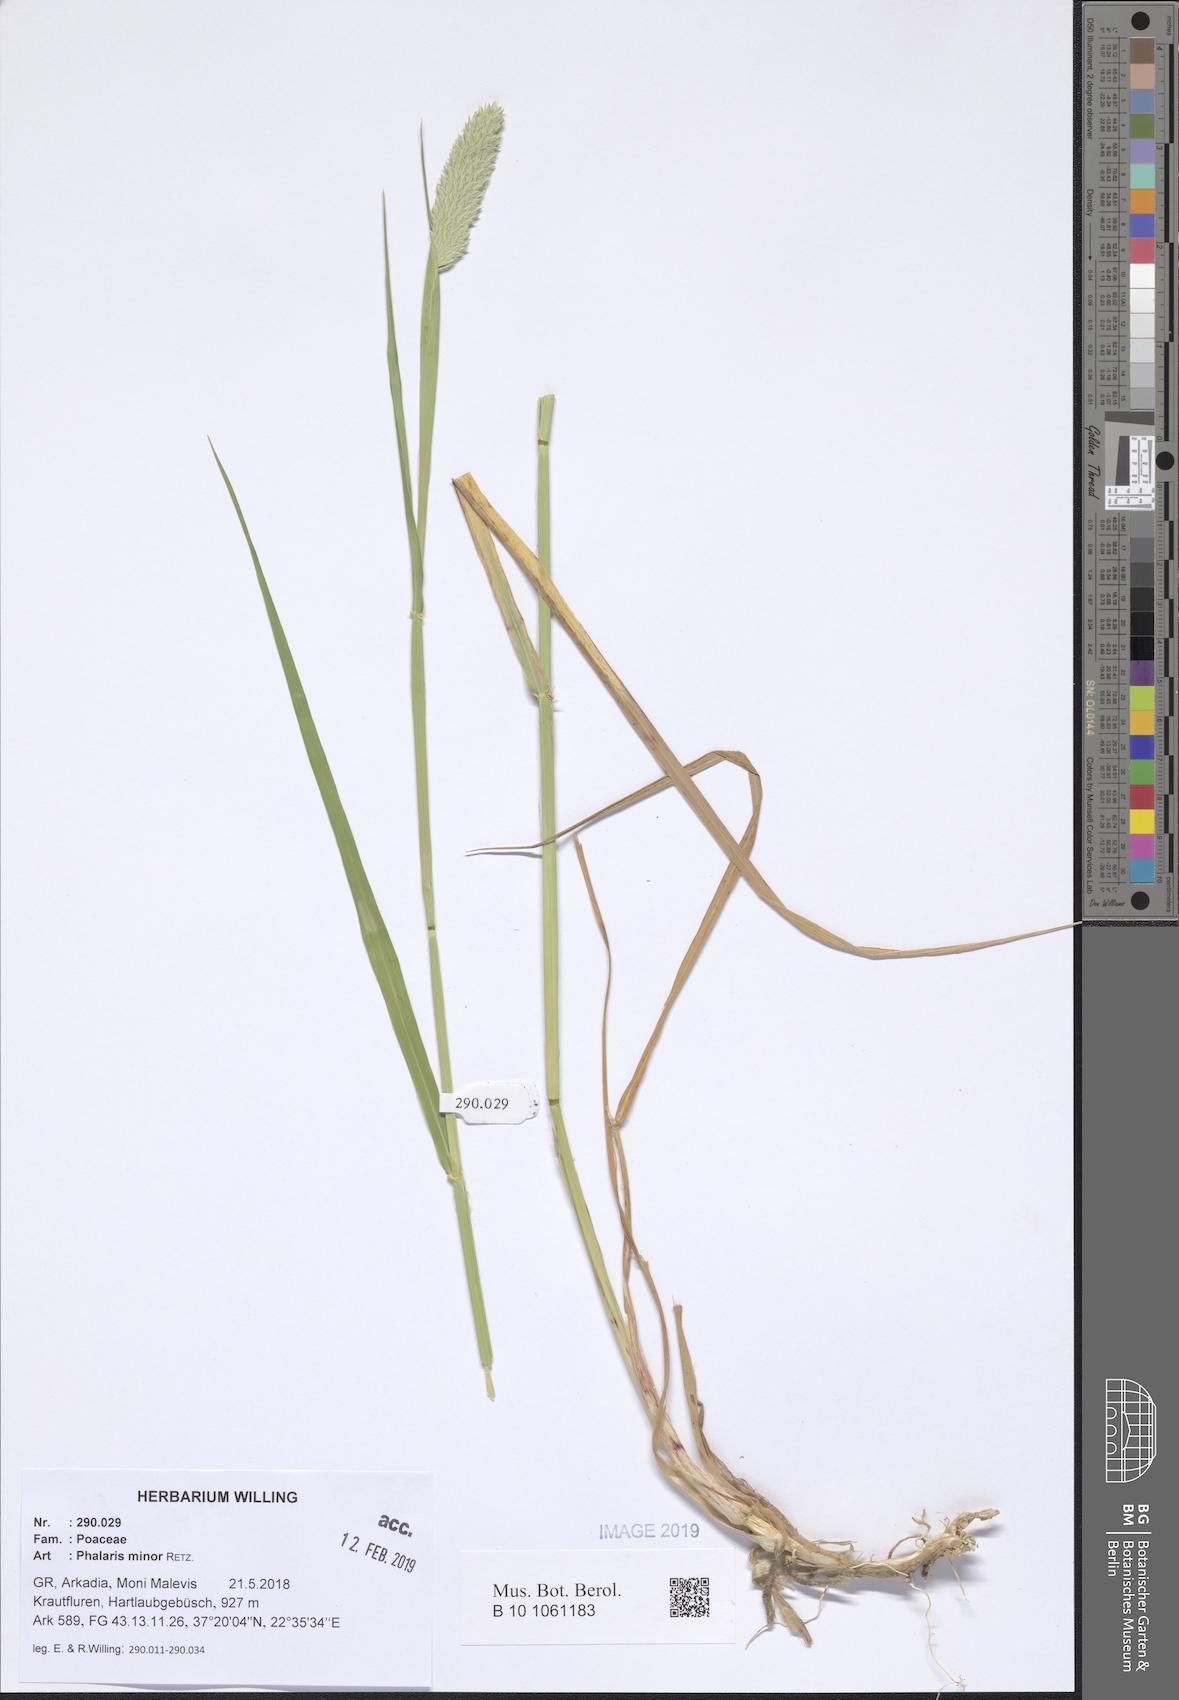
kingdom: Plantae
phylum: Tracheophyta
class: Liliopsida
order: Poales
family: Poaceae
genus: Phalaris
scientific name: Phalaris minor
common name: Littleseed canarygrass
